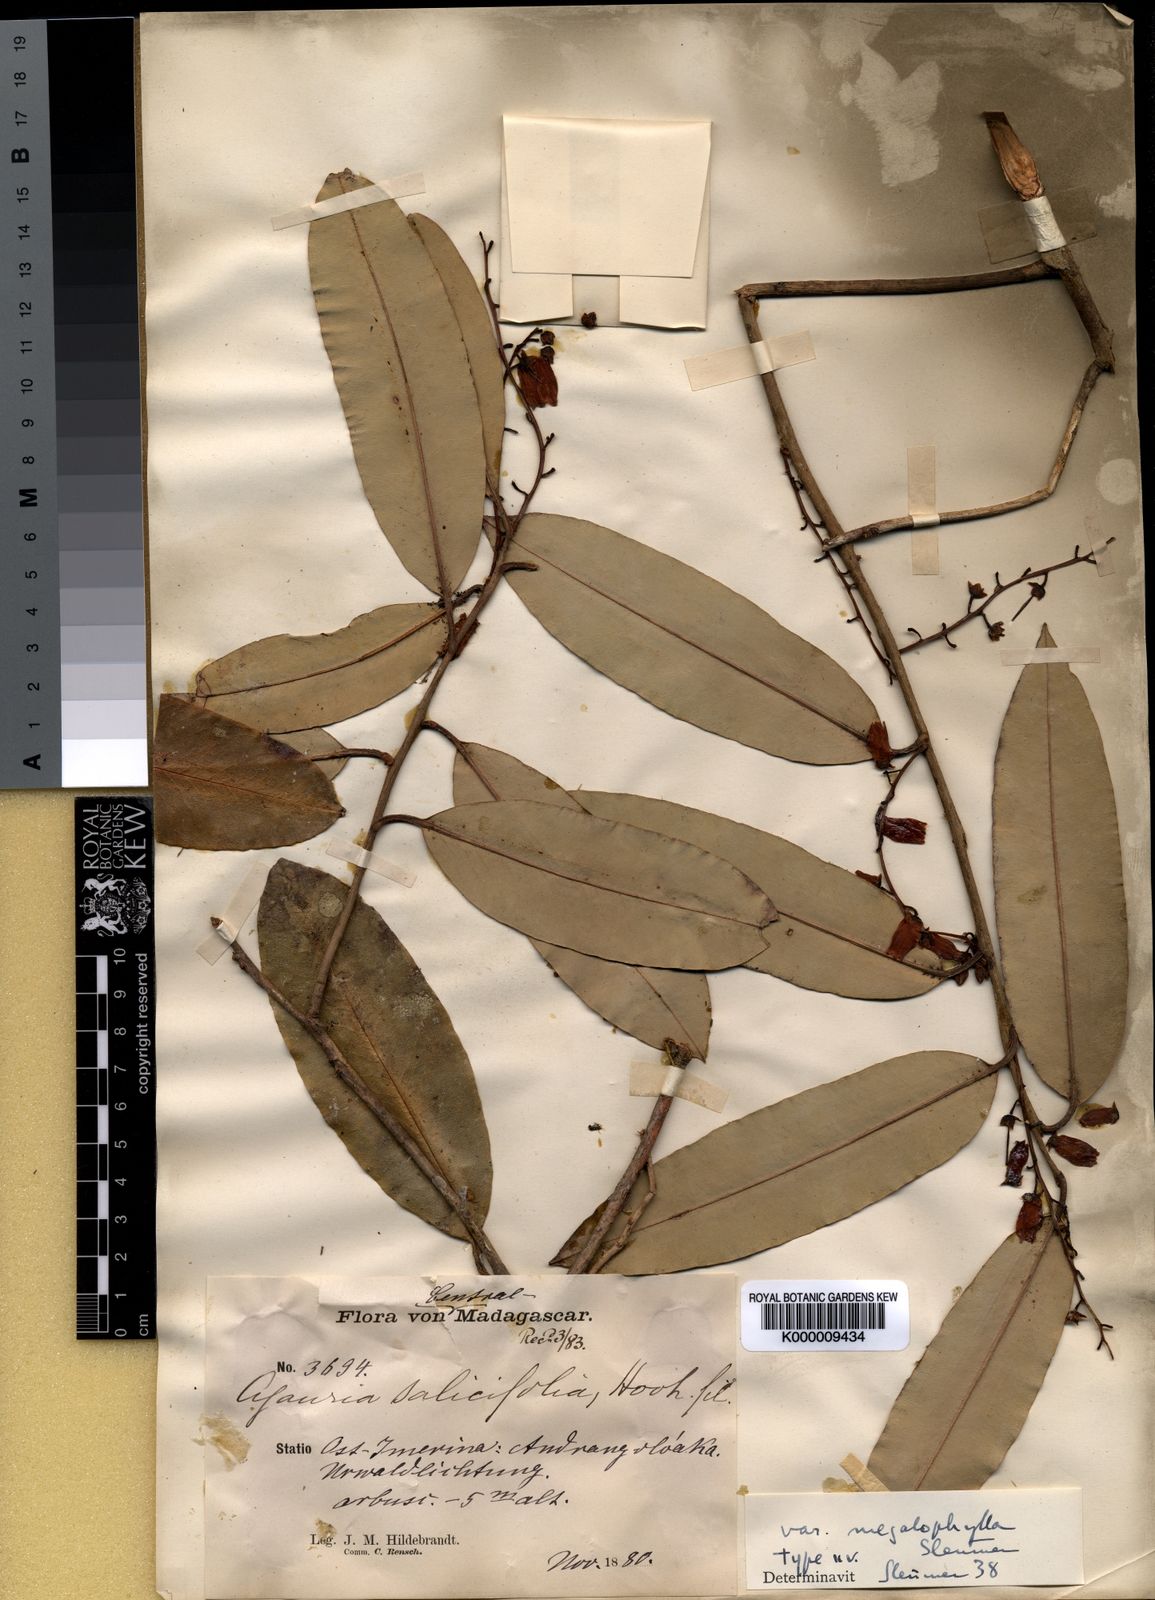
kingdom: Plantae
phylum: Tracheophyta
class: Magnoliopsida
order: Ericales
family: Ericaceae
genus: Agarista
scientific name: Agarista salicifolia
